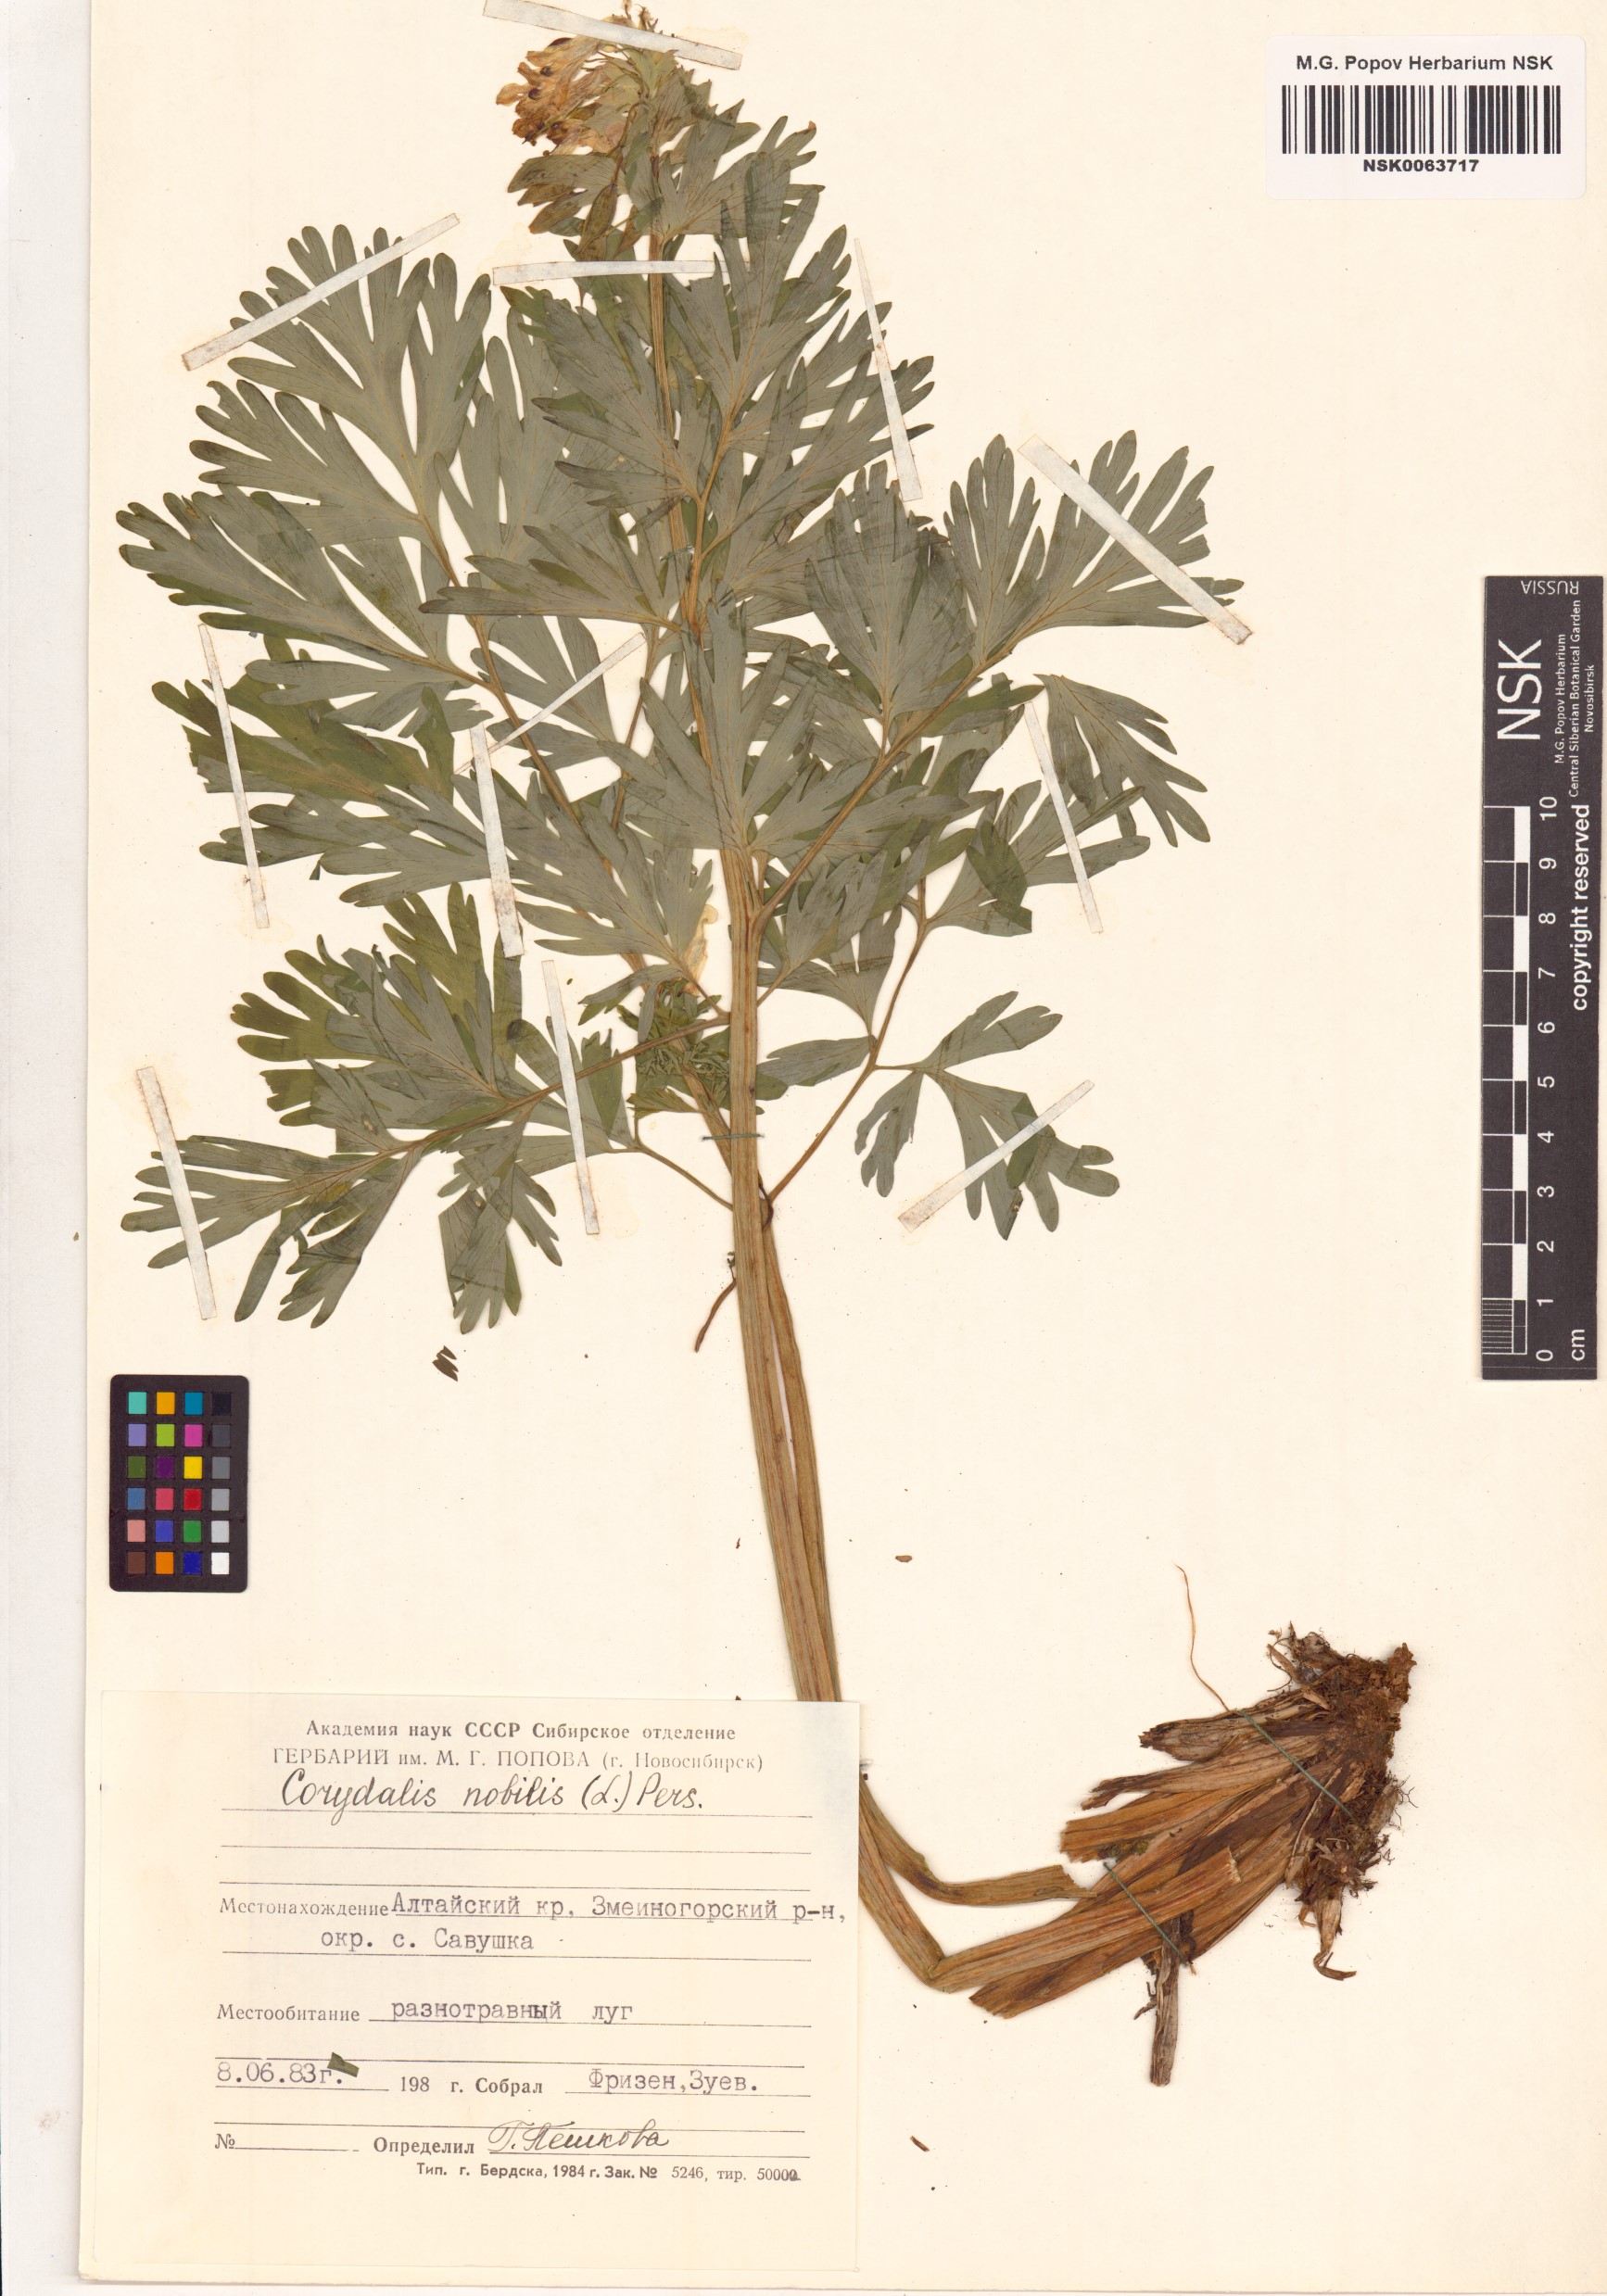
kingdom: Plantae
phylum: Tracheophyta
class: Magnoliopsida
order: Ranunculales
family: Papaveraceae
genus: Corydalis
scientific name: Corydalis nobilis
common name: Siberian corydalis
